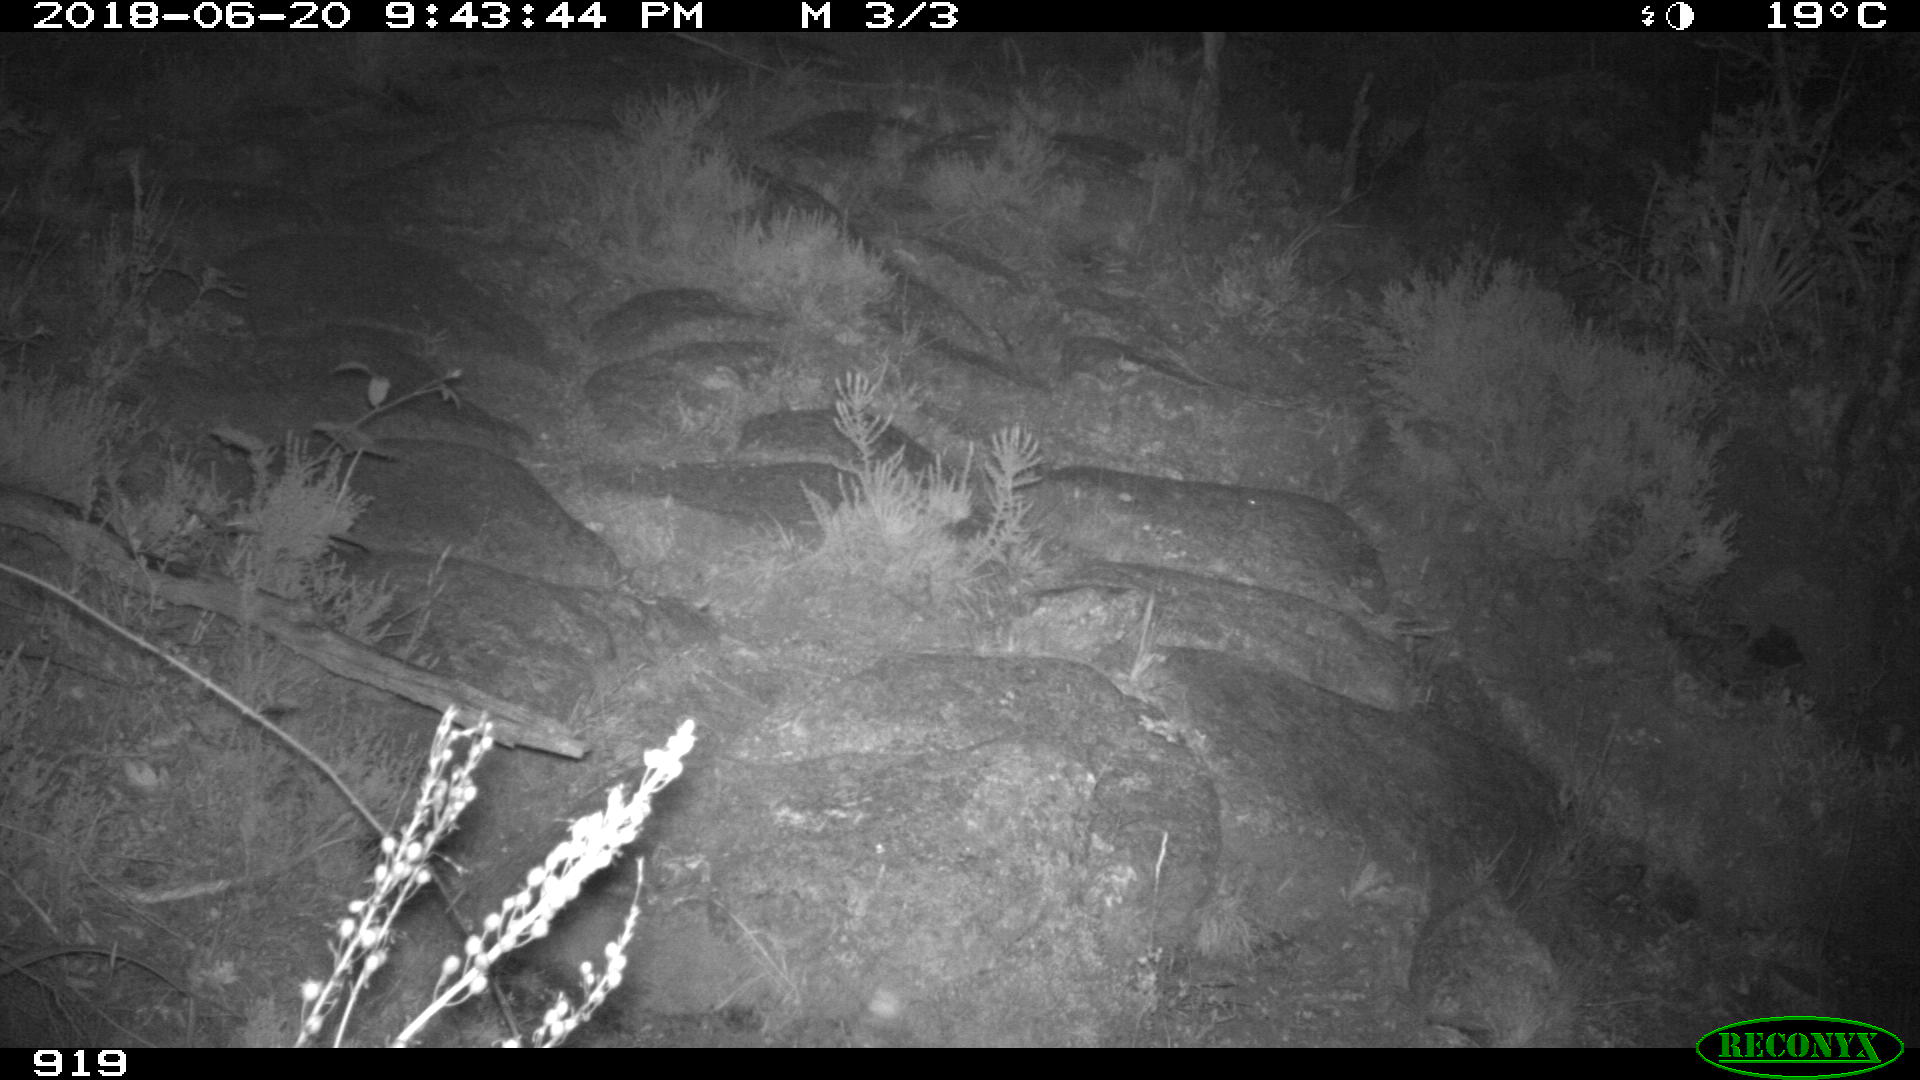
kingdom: Animalia
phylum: Chordata
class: Mammalia
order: Artiodactyla
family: Bovidae
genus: Bos
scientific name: Bos taurus
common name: Domesticated cattle
